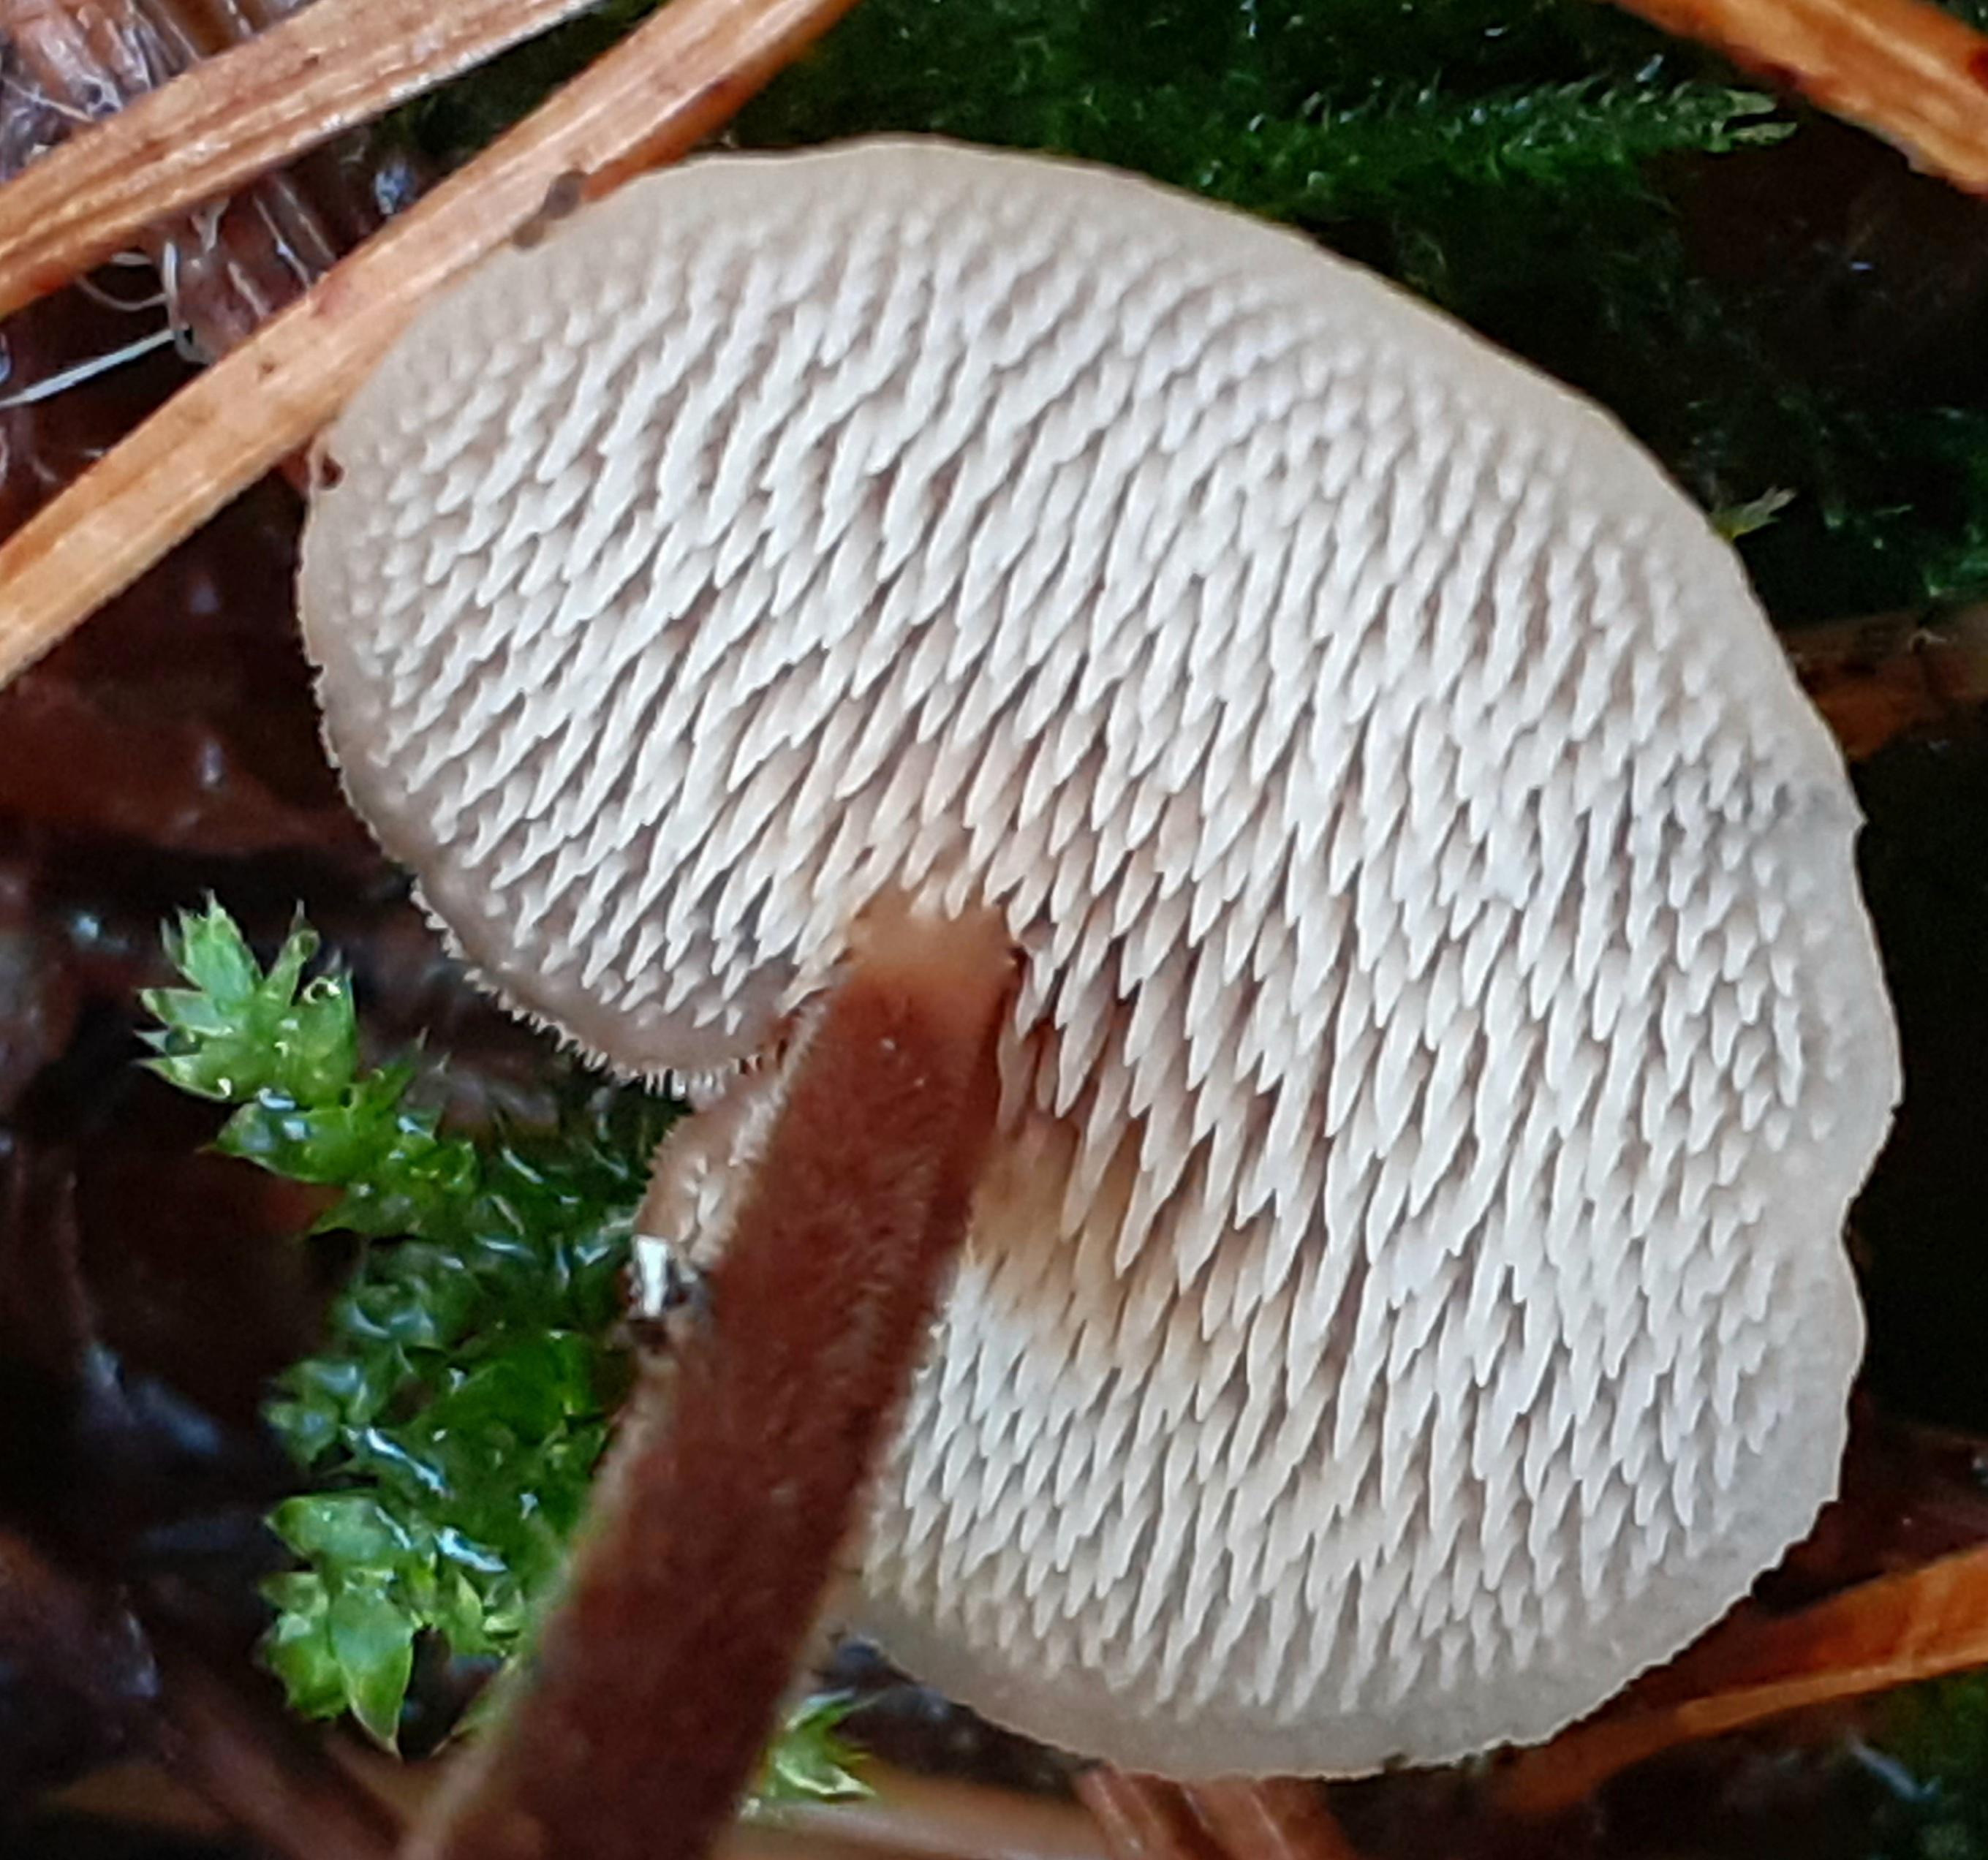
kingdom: Fungi
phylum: Basidiomycota
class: Agaricomycetes
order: Russulales
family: Auriscalpiaceae
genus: Auriscalpium
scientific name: Auriscalpium vulgare
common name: koglepigsvamp
